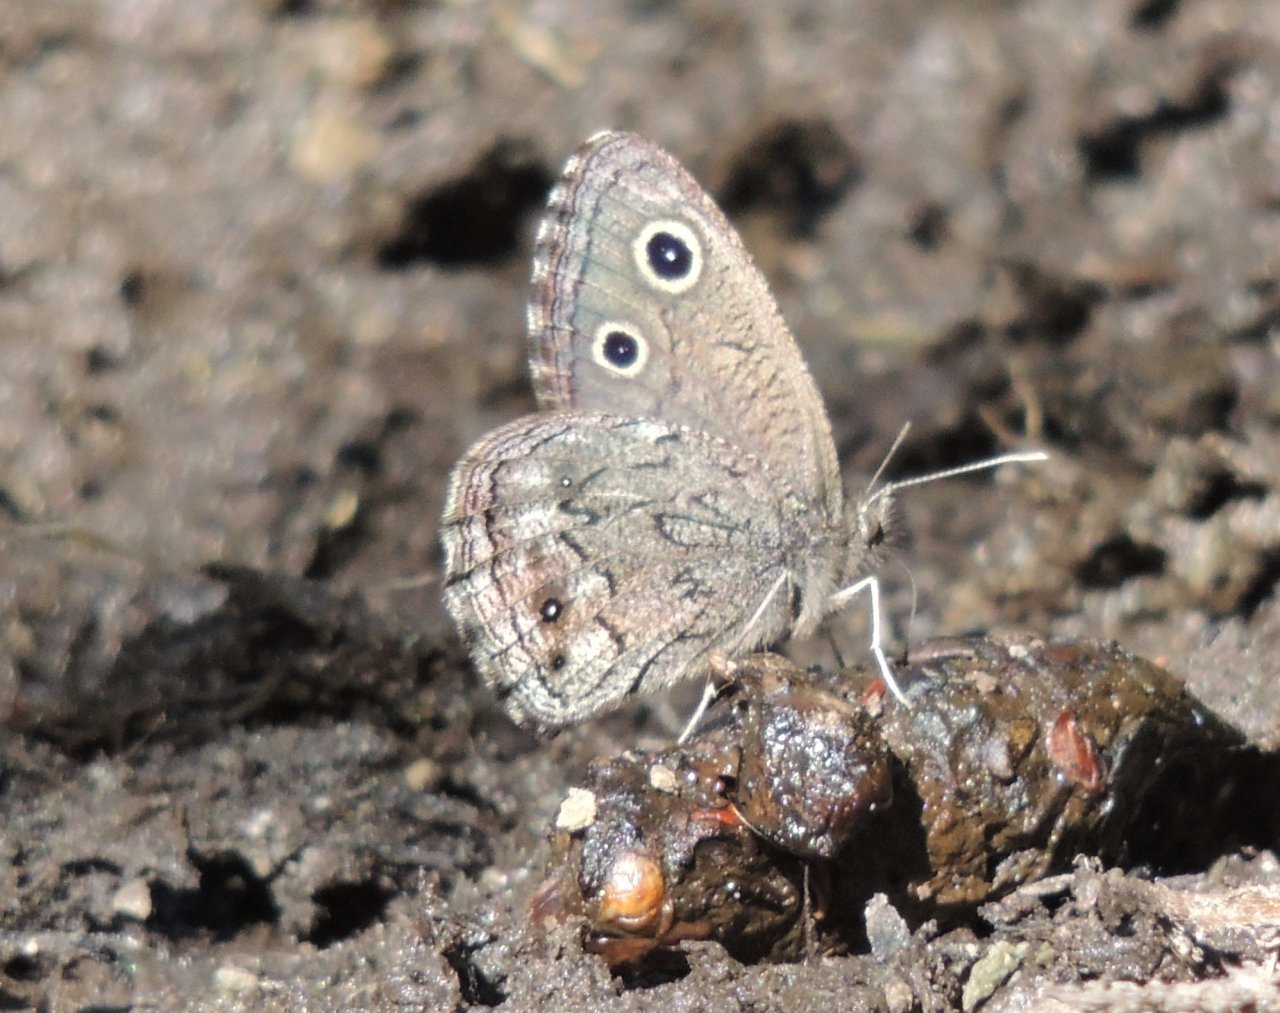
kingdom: Animalia
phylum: Arthropoda
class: Insecta
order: Lepidoptera
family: Nymphalidae
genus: Cercyonis
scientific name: Cercyonis oetus
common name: Small Wood-Nymph
